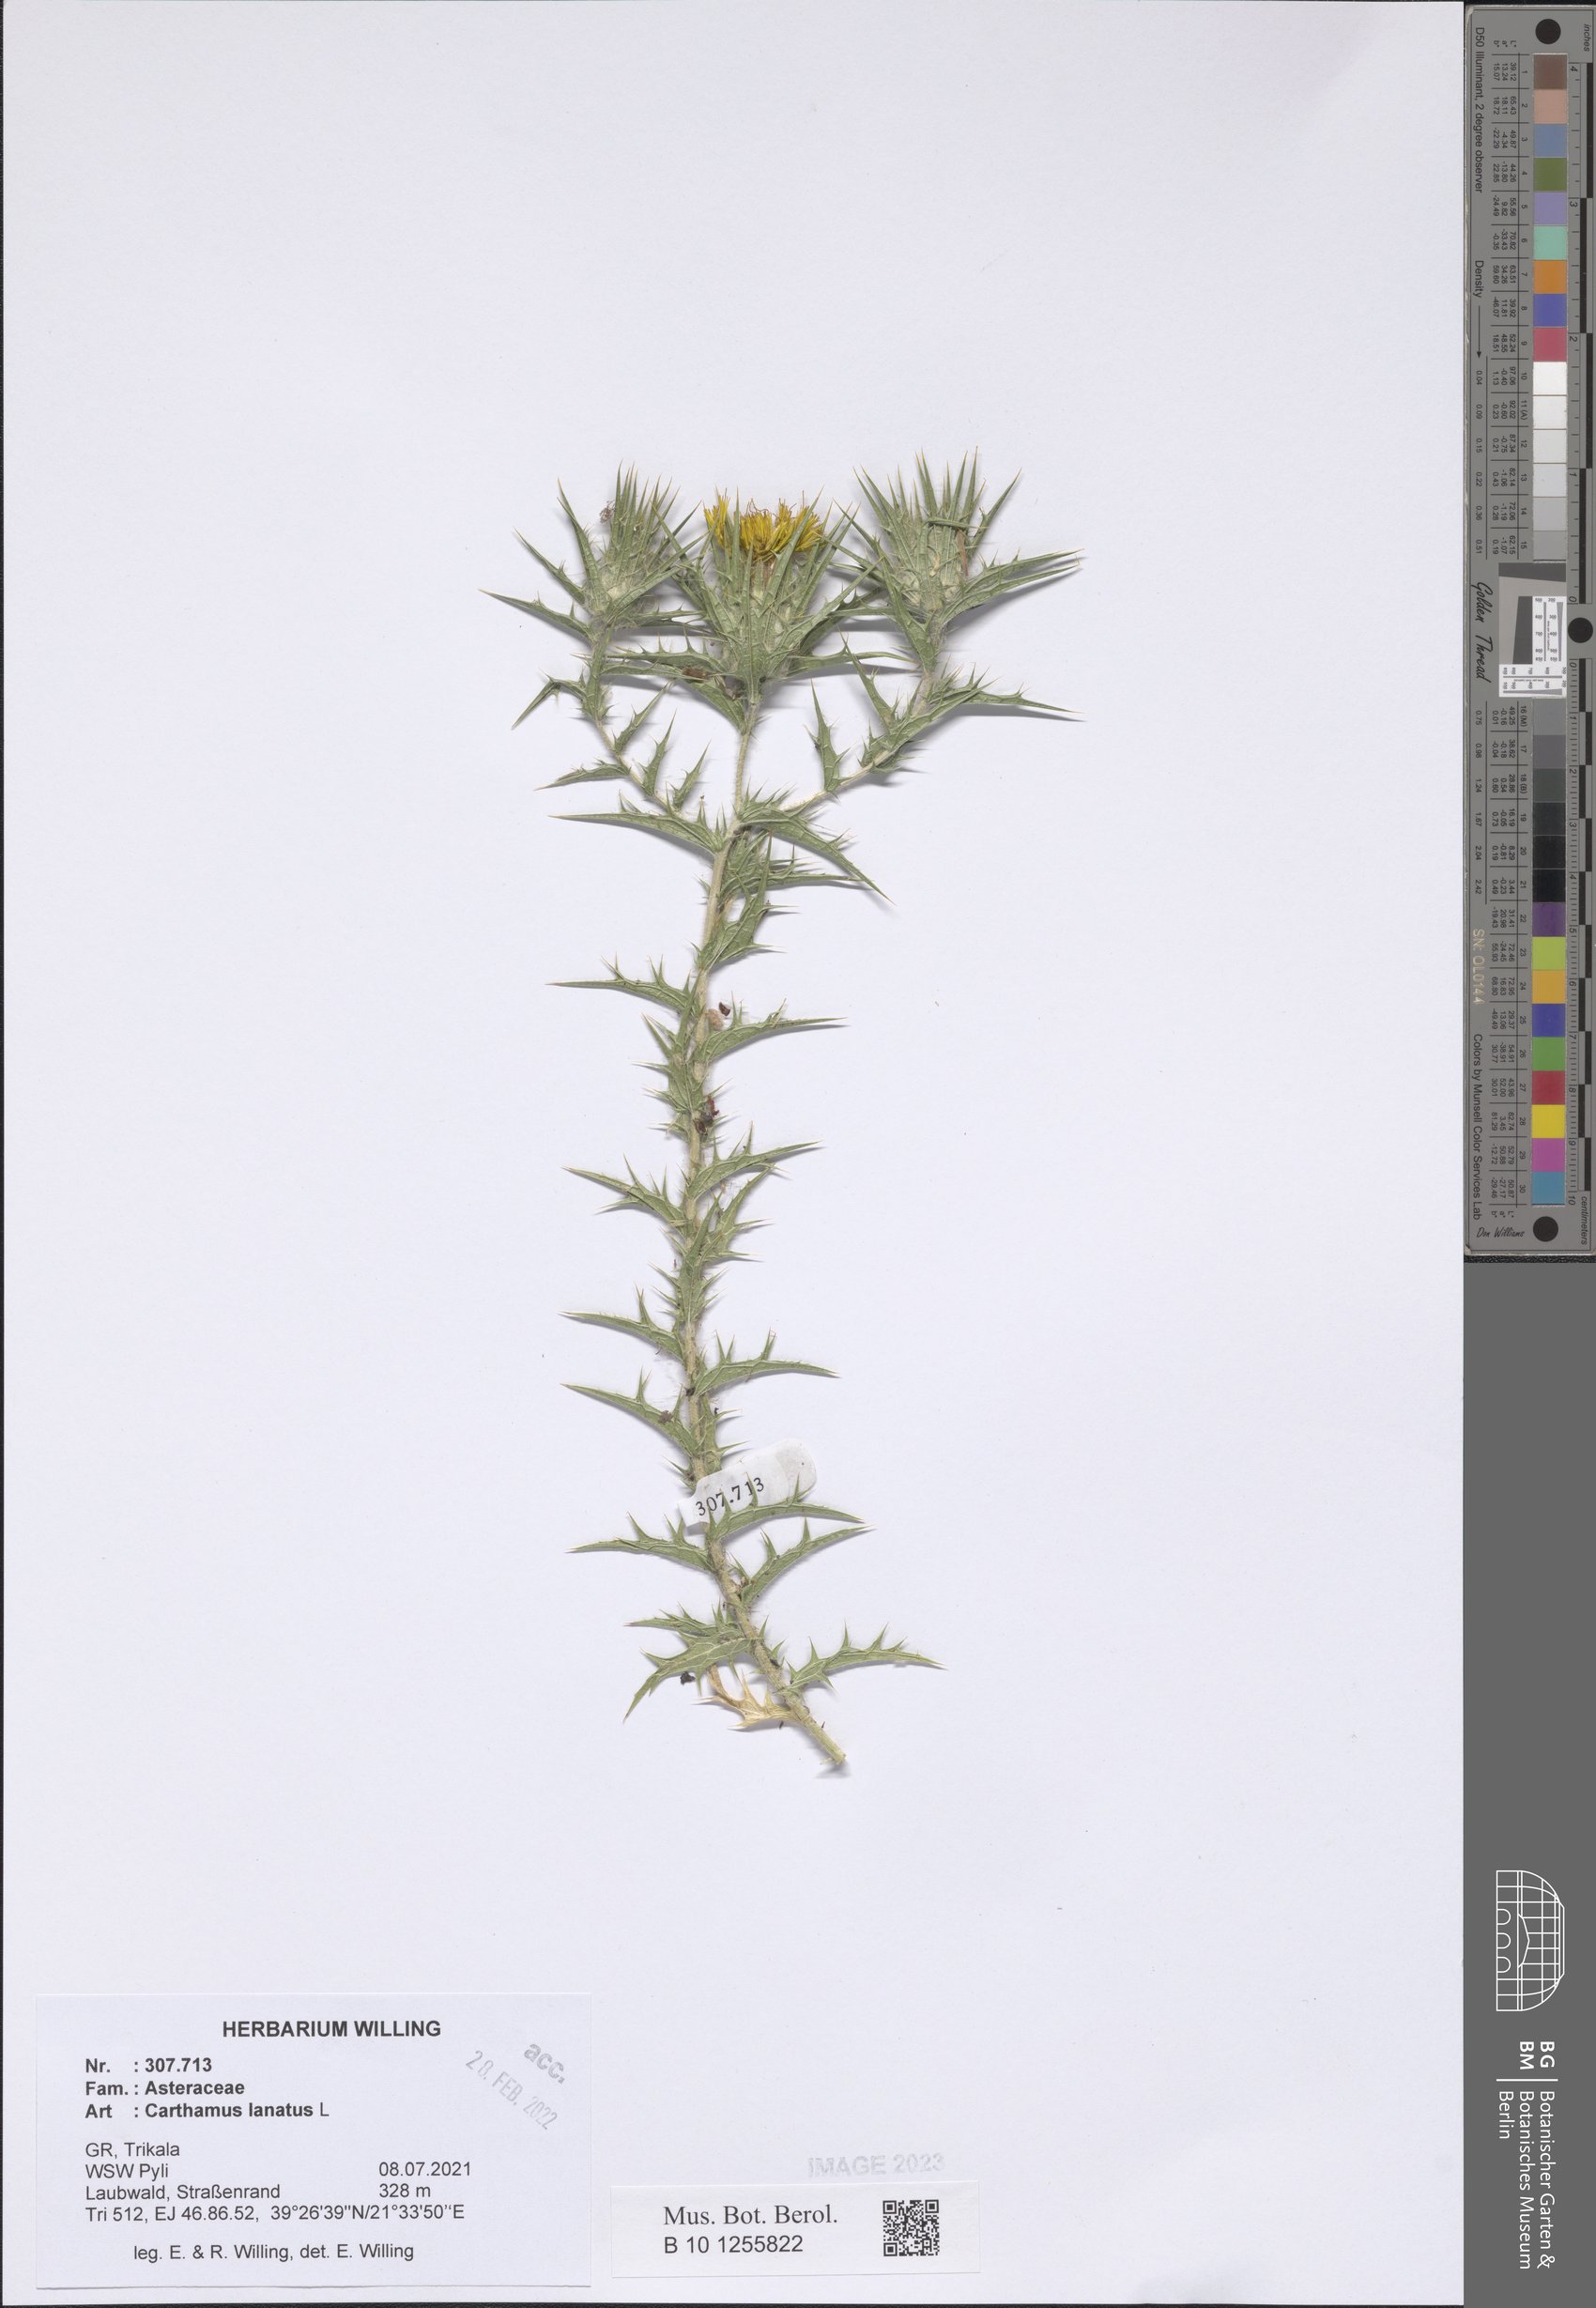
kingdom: Plantae
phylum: Tracheophyta
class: Magnoliopsida
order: Asterales
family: Asteraceae
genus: Carthamus
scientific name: Carthamus lanatus
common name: Downy safflower
